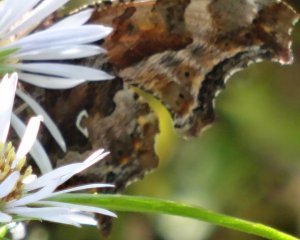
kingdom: Animalia
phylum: Arthropoda
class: Insecta
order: Lepidoptera
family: Nymphalidae
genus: Polygonia
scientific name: Polygonia comma
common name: Eastern Comma
